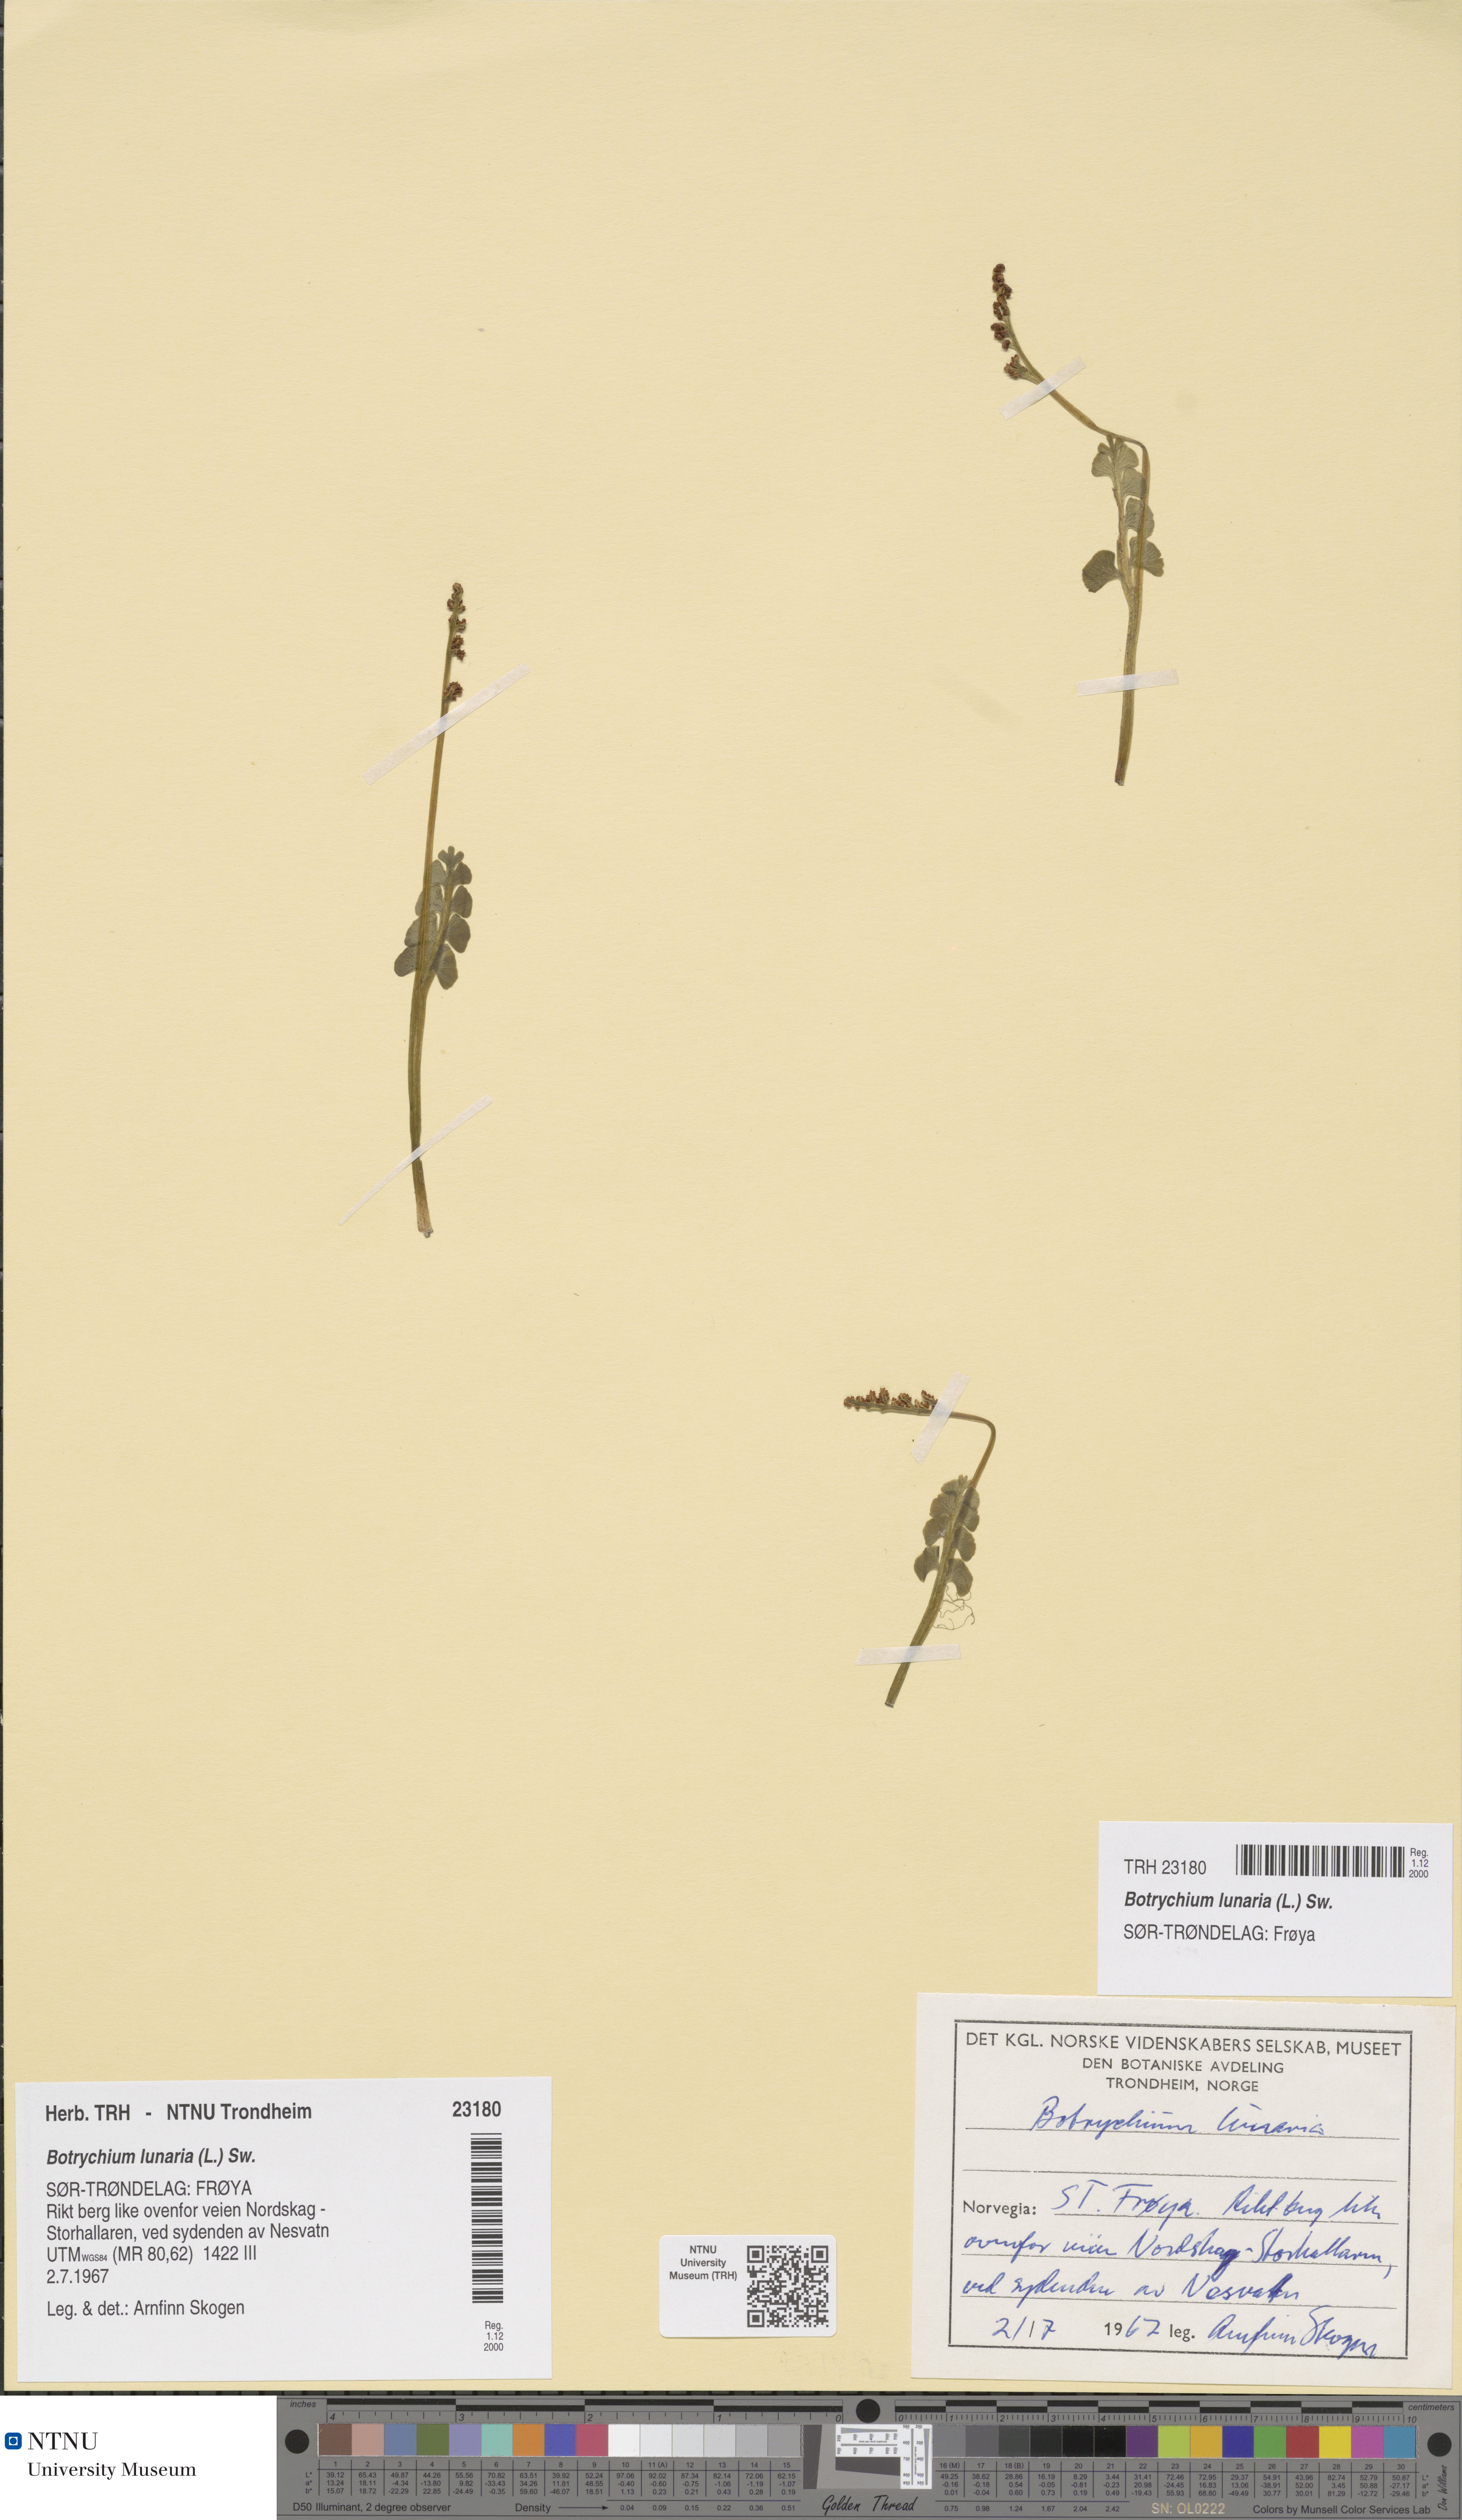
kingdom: Plantae
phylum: Tracheophyta
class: Polypodiopsida
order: Ophioglossales
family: Ophioglossaceae
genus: Botrychium
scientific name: Botrychium lunaria
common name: Moonwort
